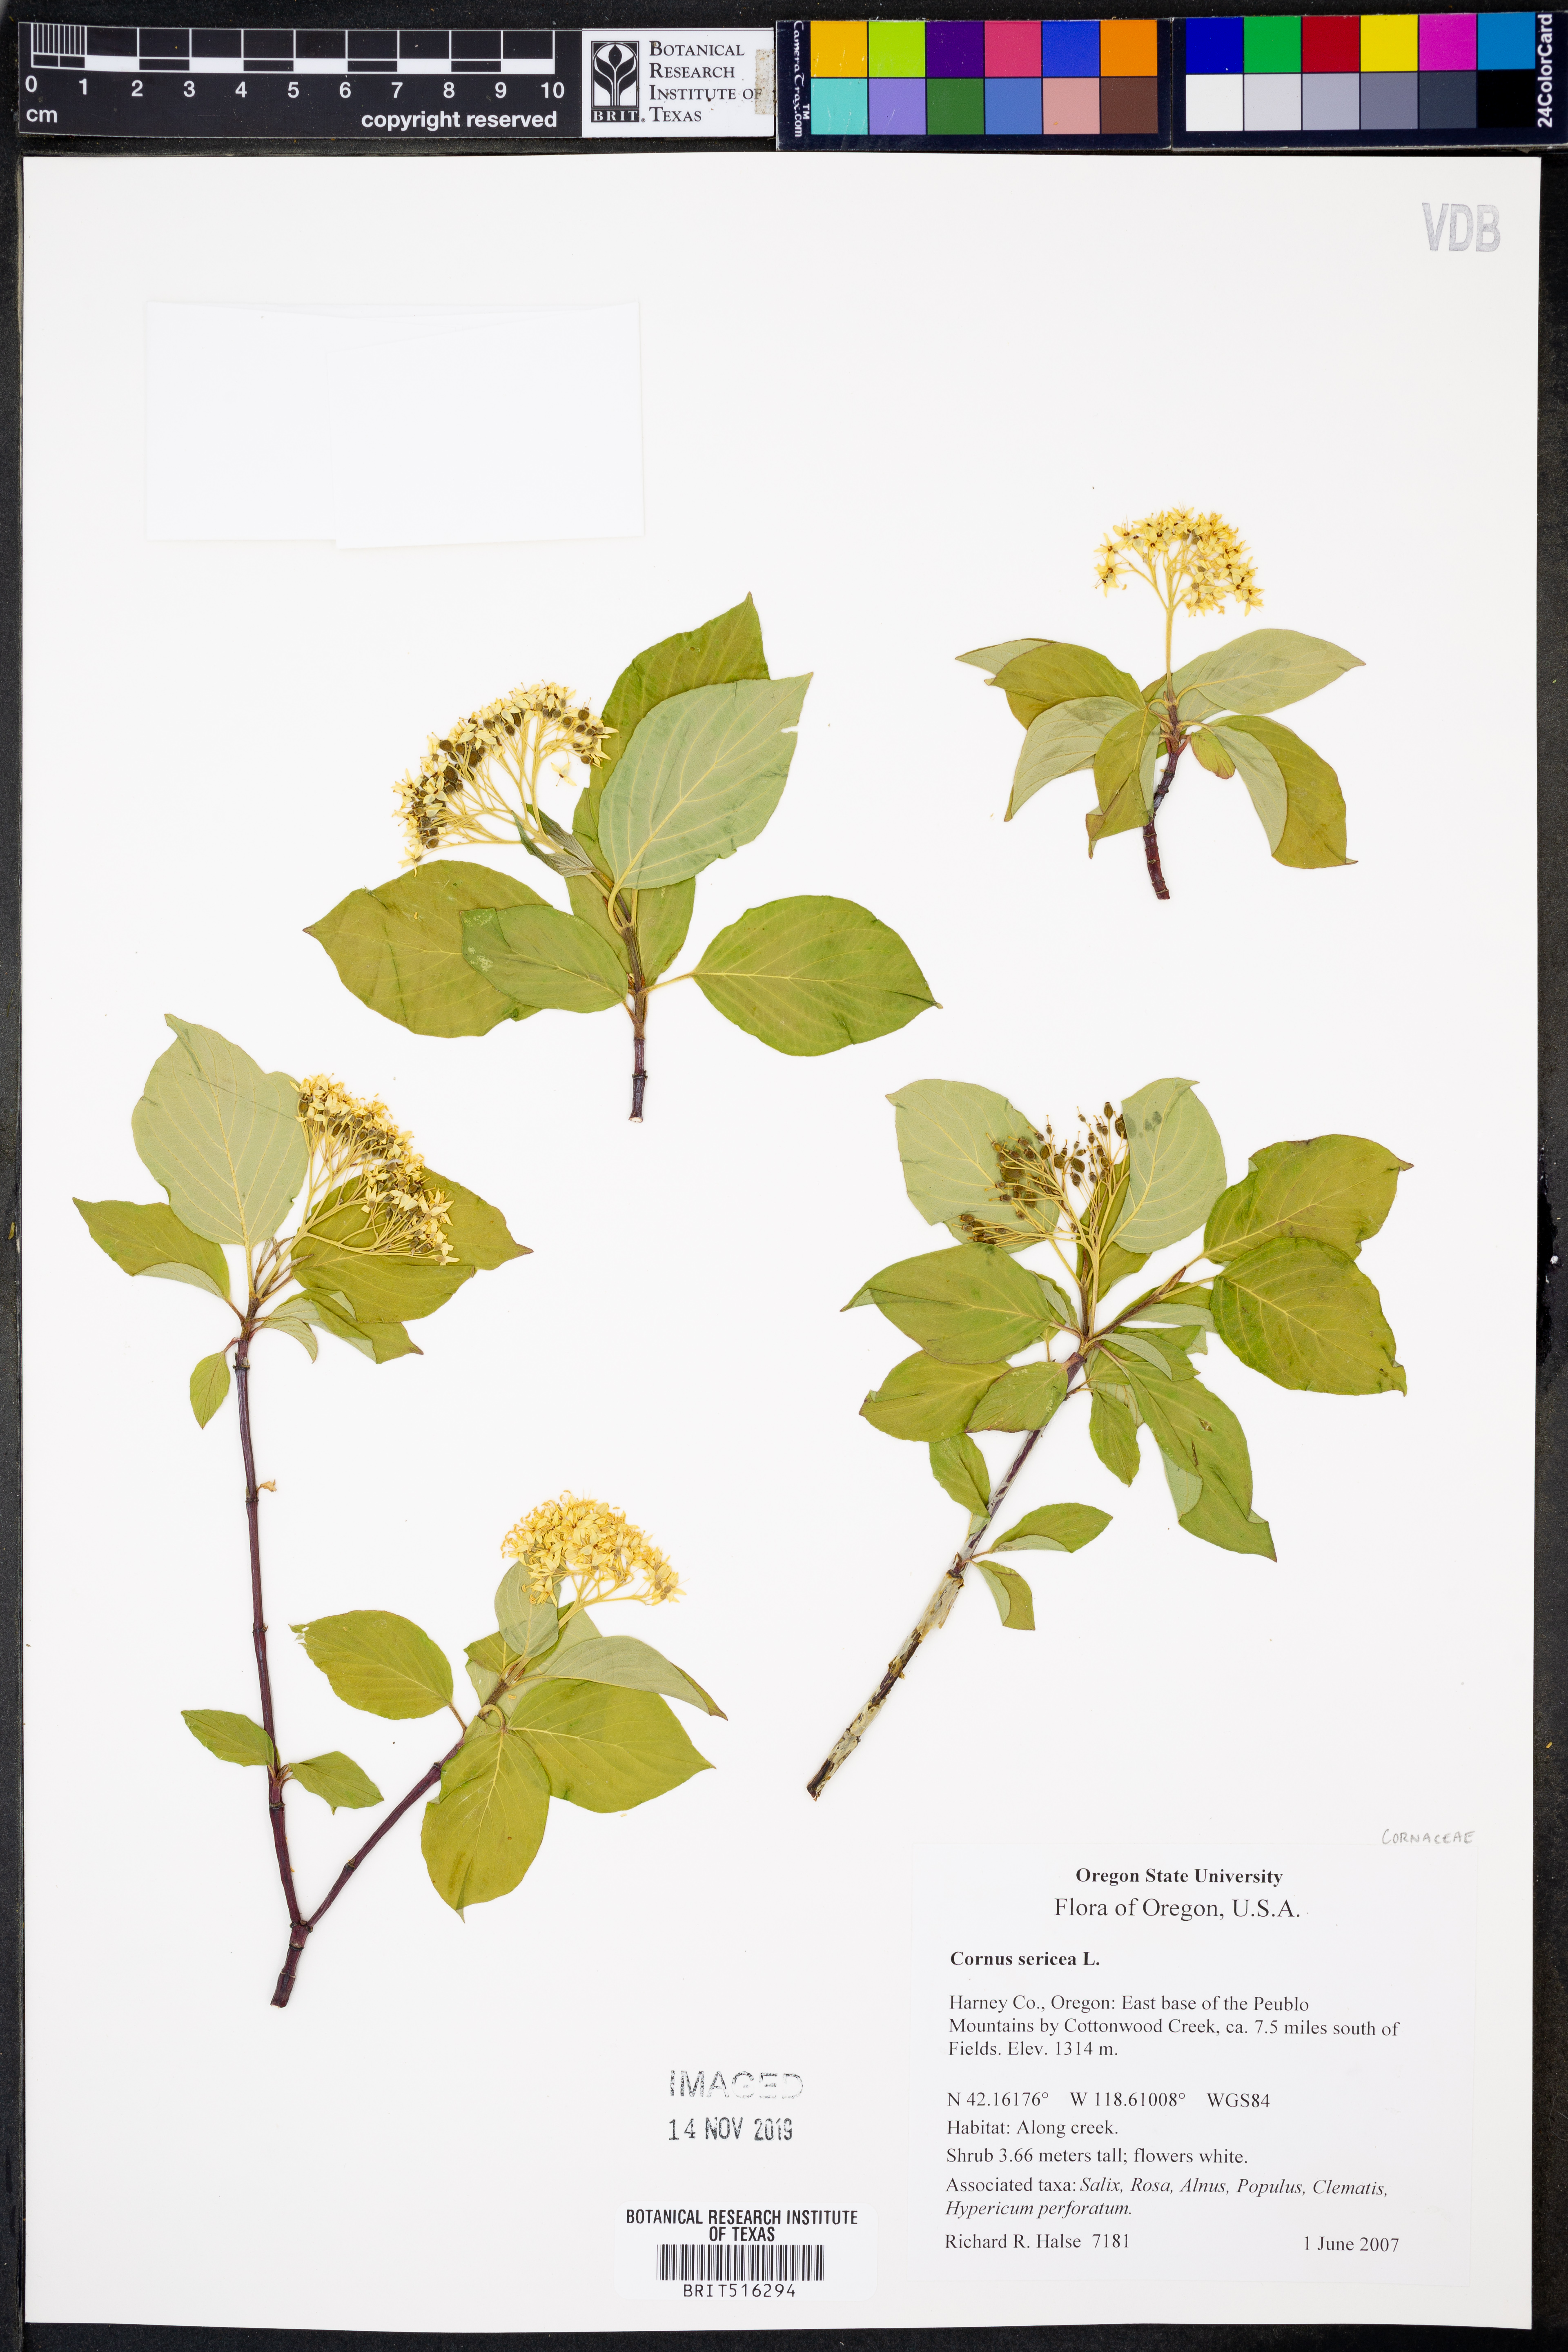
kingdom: Plantae
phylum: Tracheophyta
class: Magnoliopsida
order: Cornales
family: Cornaceae
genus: Cornus
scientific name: Cornus sericea
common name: Red-osier dogwood
